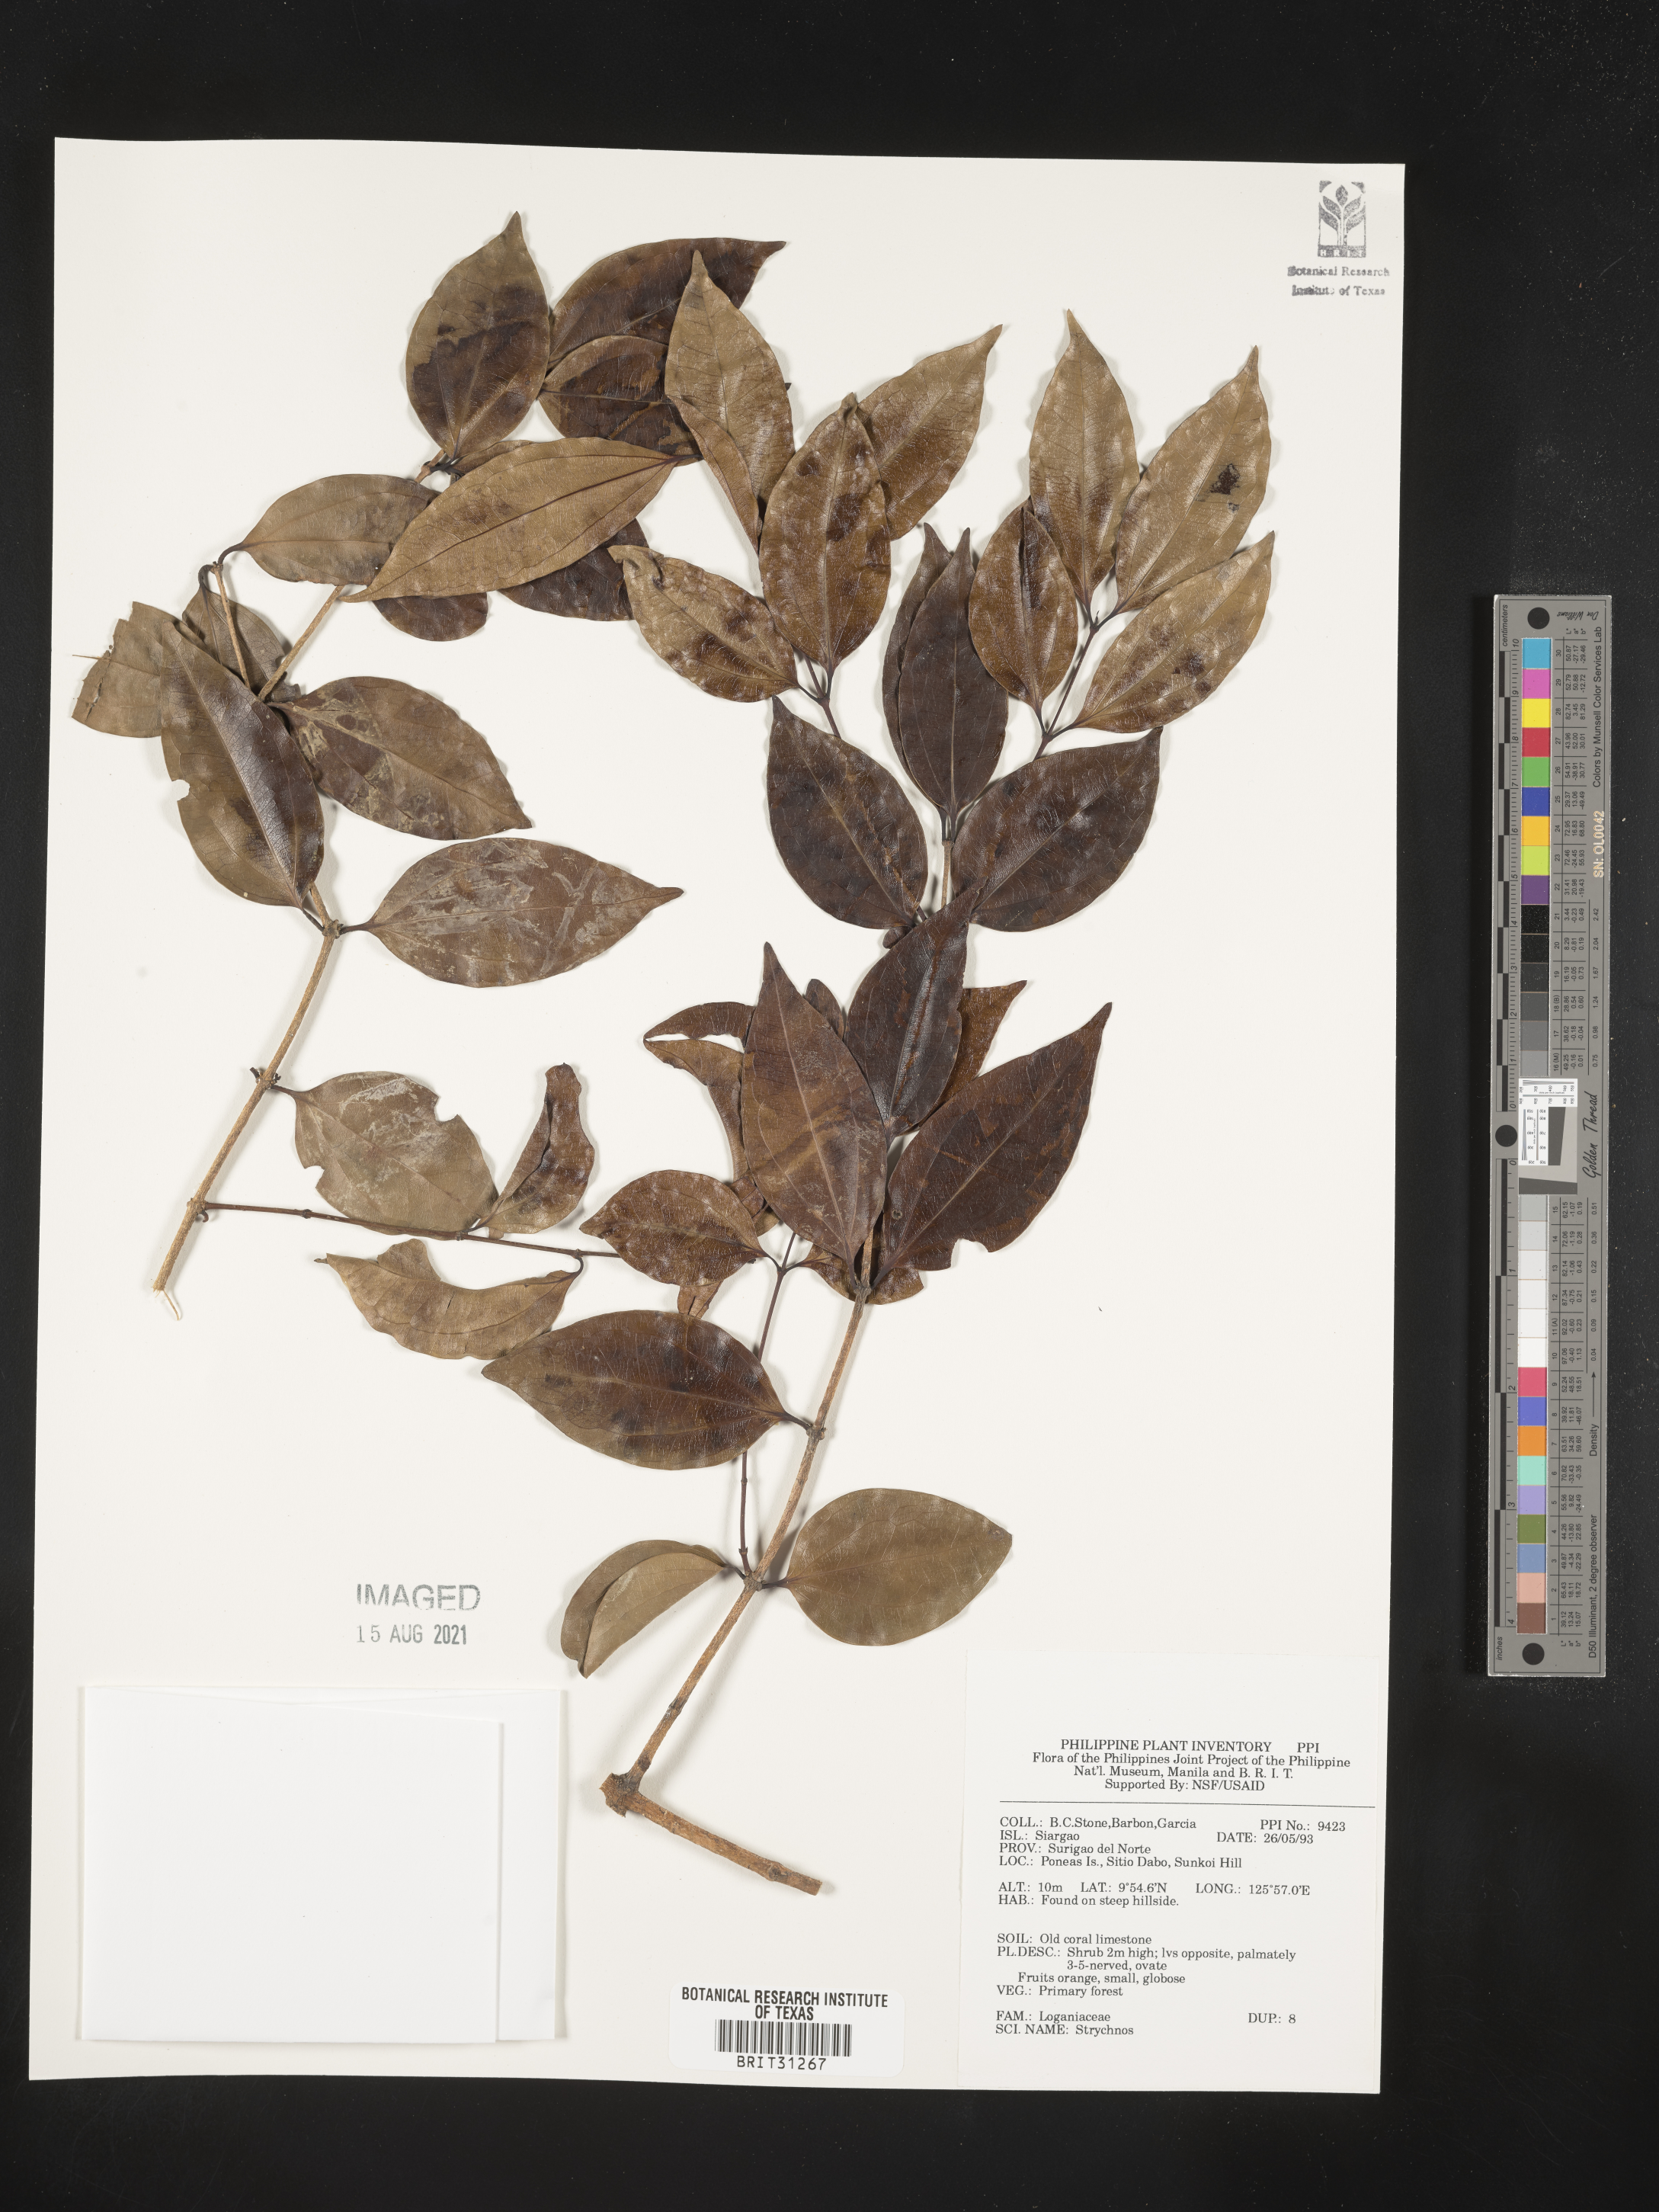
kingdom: Plantae
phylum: Tracheophyta
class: Magnoliopsida
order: Gentianales
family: Loganiaceae
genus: Strychnos
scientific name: Strychnos
